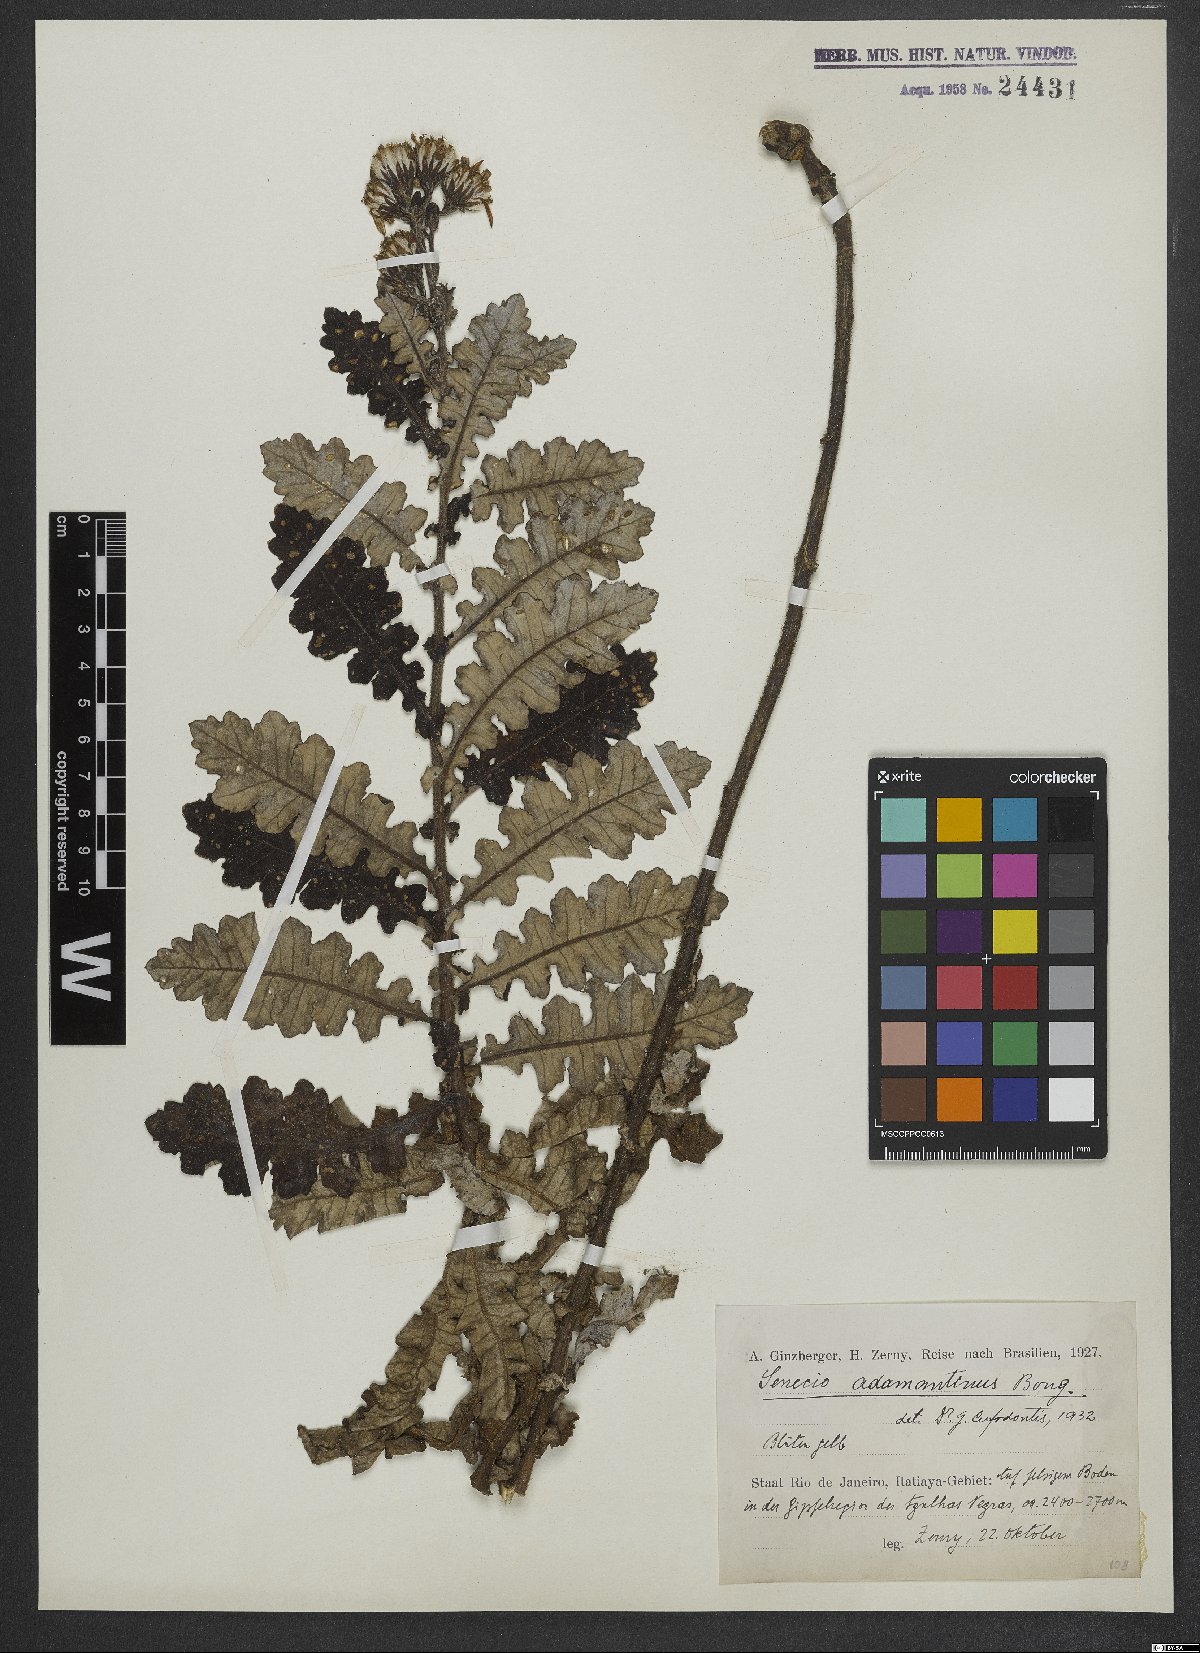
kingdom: Plantae
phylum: Tracheophyta
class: Magnoliopsida
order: Asterales
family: Asteraceae
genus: Senecio
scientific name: Senecio adamantinus
